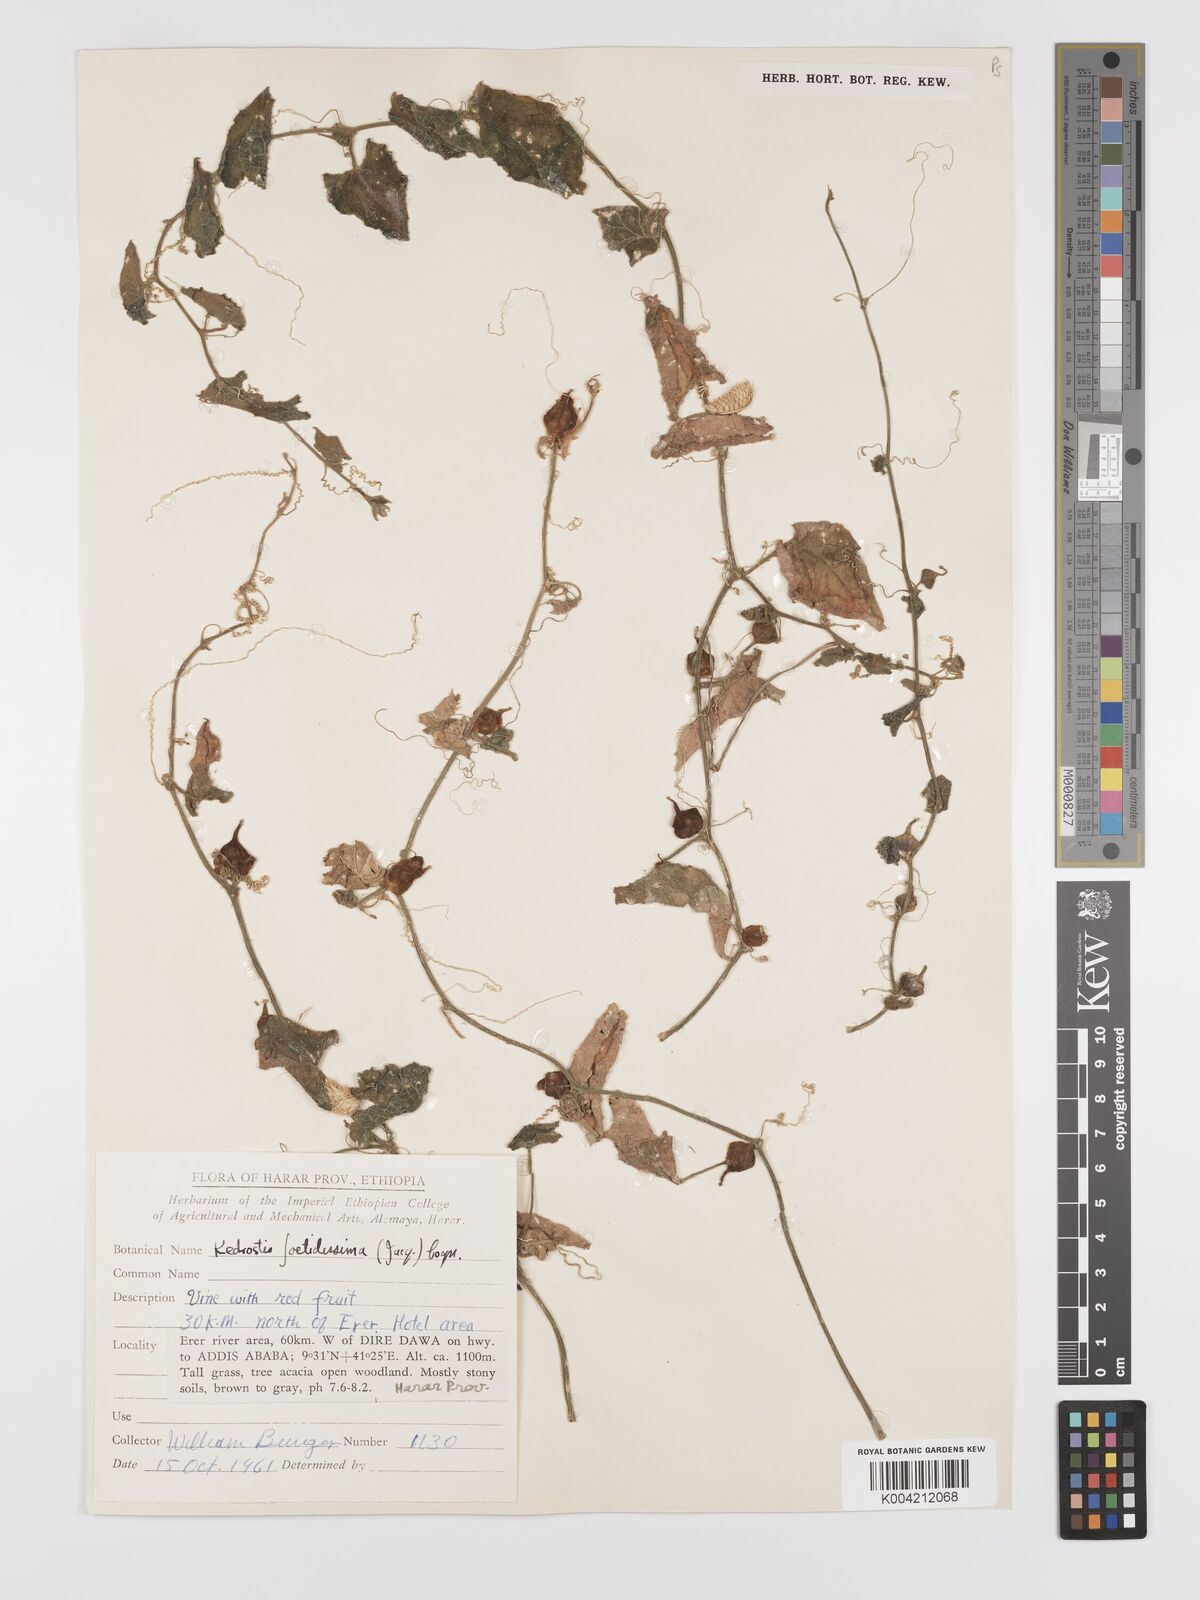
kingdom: Plantae
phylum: Tracheophyta
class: Magnoliopsida
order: Cucurbitales
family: Cucurbitaceae
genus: Kedrostis
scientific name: Kedrostis foetidissima
